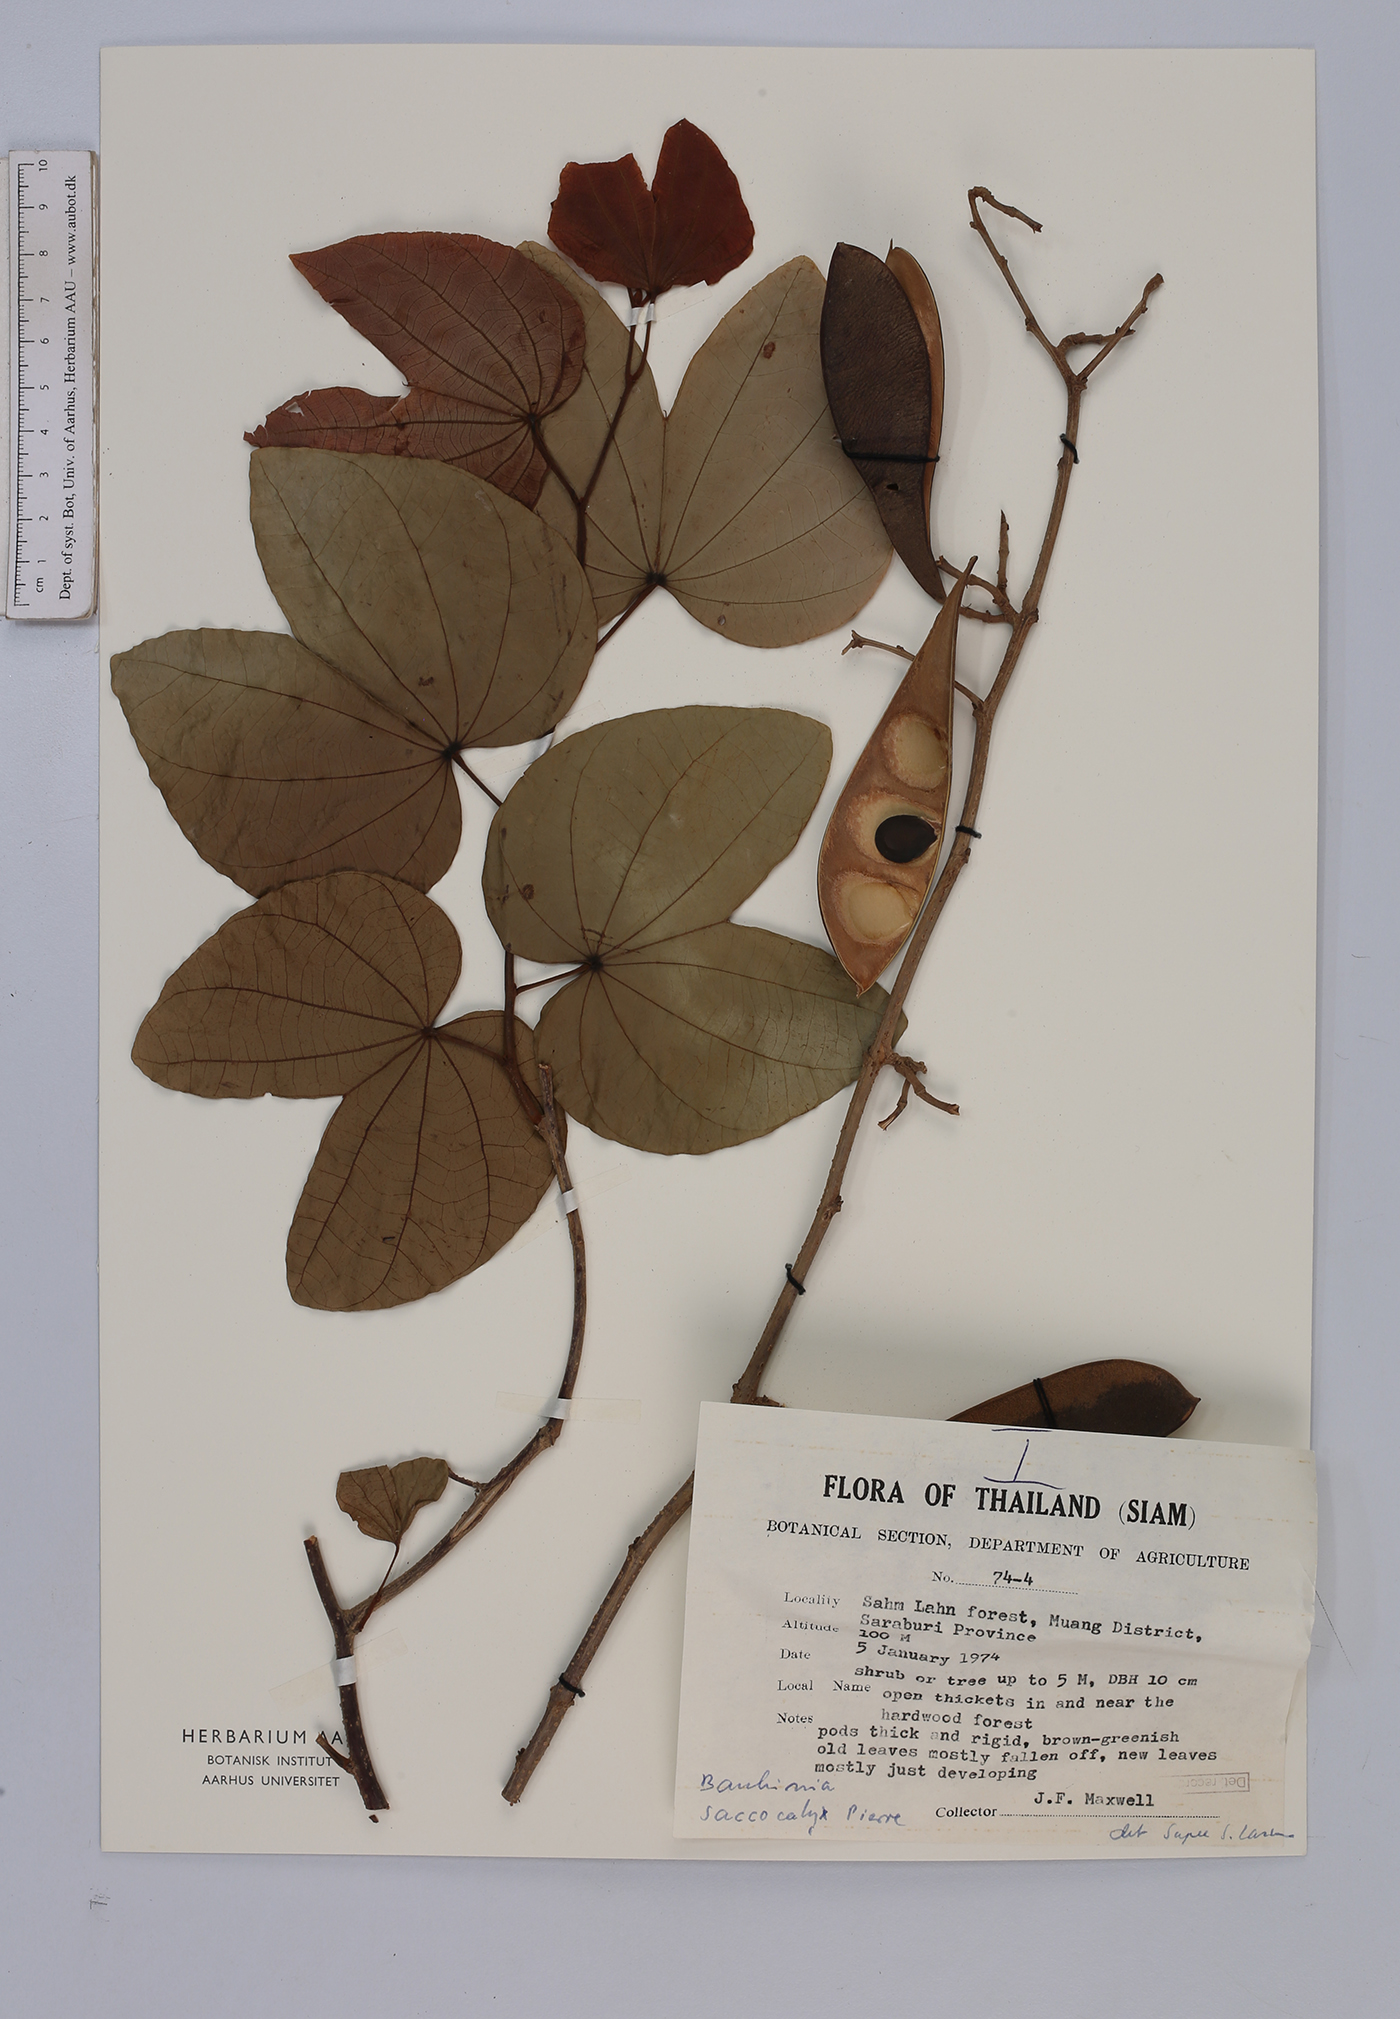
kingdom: Plantae
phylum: Tracheophyta
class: Magnoliopsida
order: Fabales
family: Fabaceae
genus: Bauhinia
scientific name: Bauhinia saccocalyx
